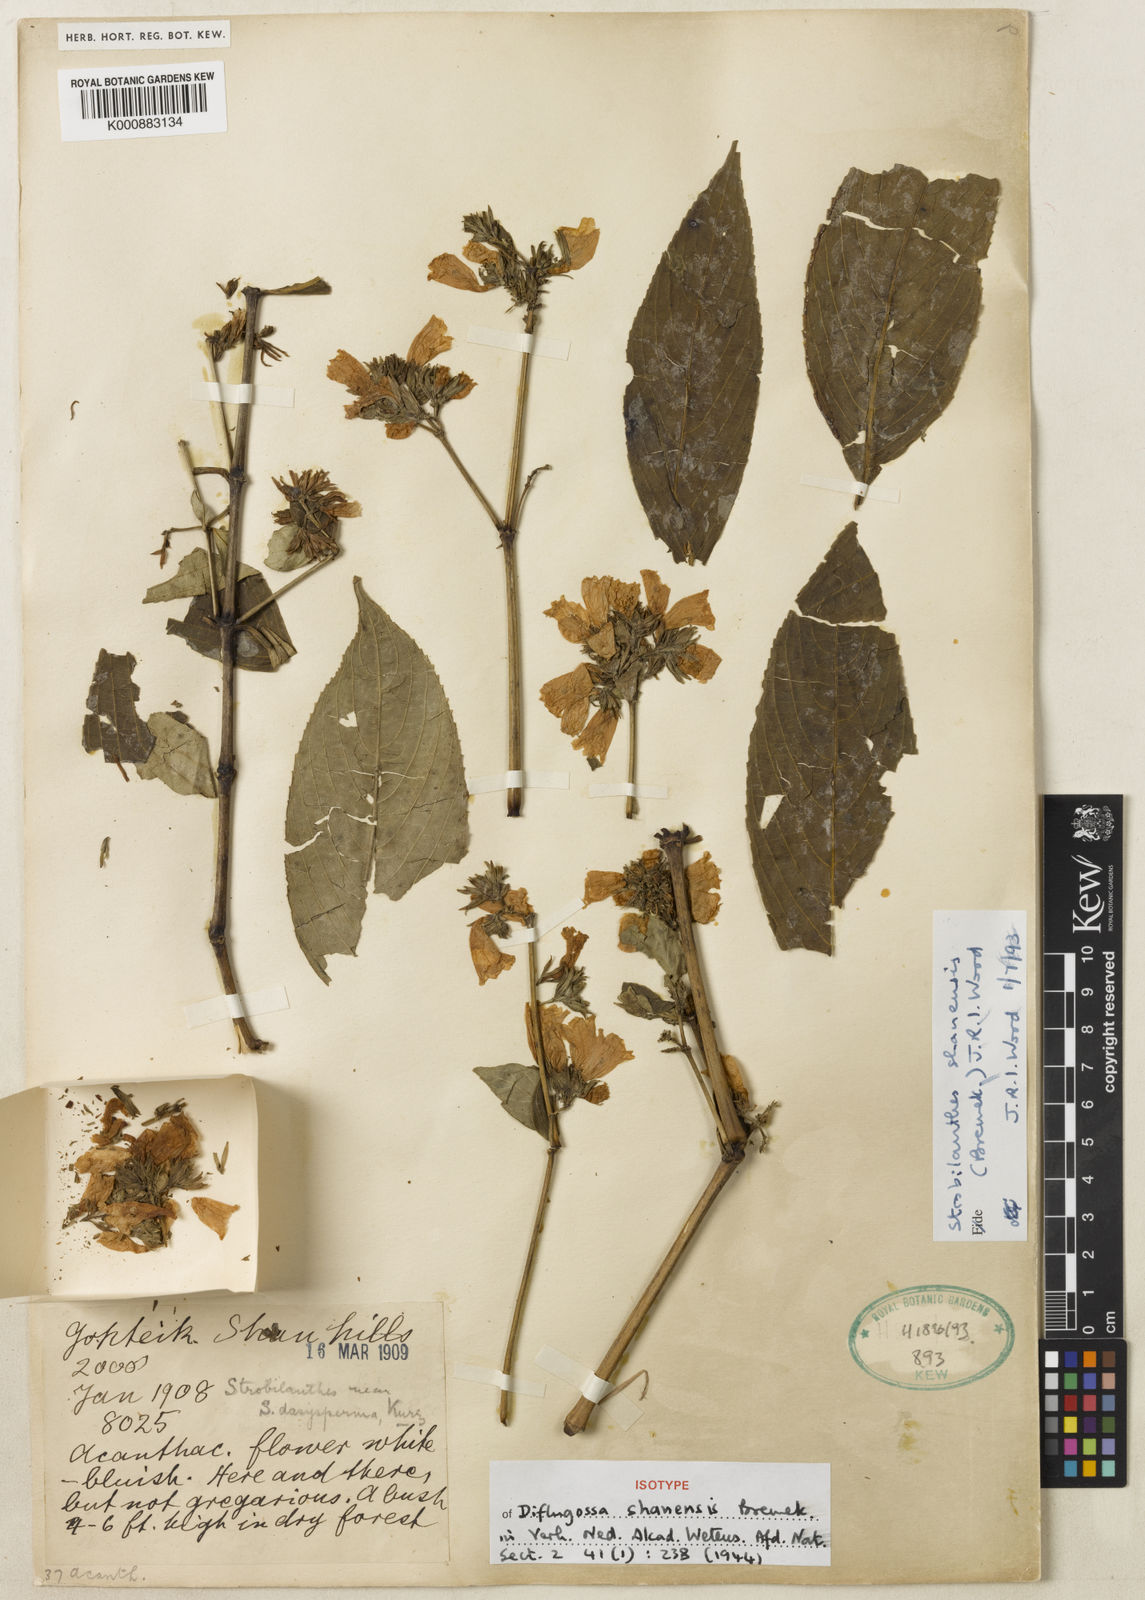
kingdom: Plantae
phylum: Tracheophyta
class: Magnoliopsida
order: Lamiales
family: Acanthaceae
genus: Strobilanthes
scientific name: Strobilanthes shanensis
